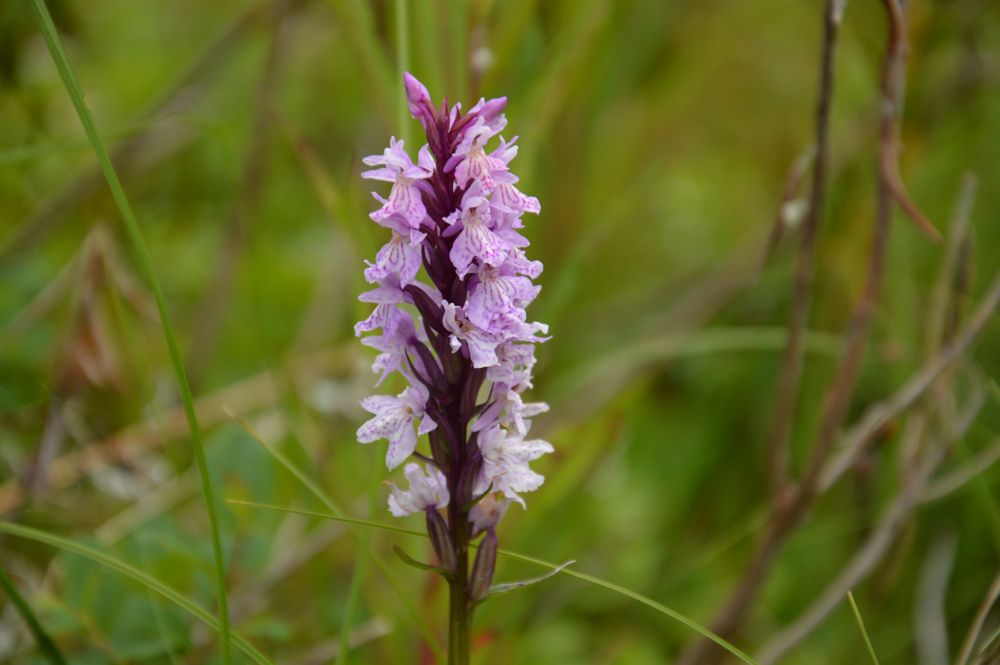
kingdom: Plantae
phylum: Tracheophyta
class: Liliopsida
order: Asparagales
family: Orchidaceae
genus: Dactylorhiza
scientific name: Dactylorhiza maculata
